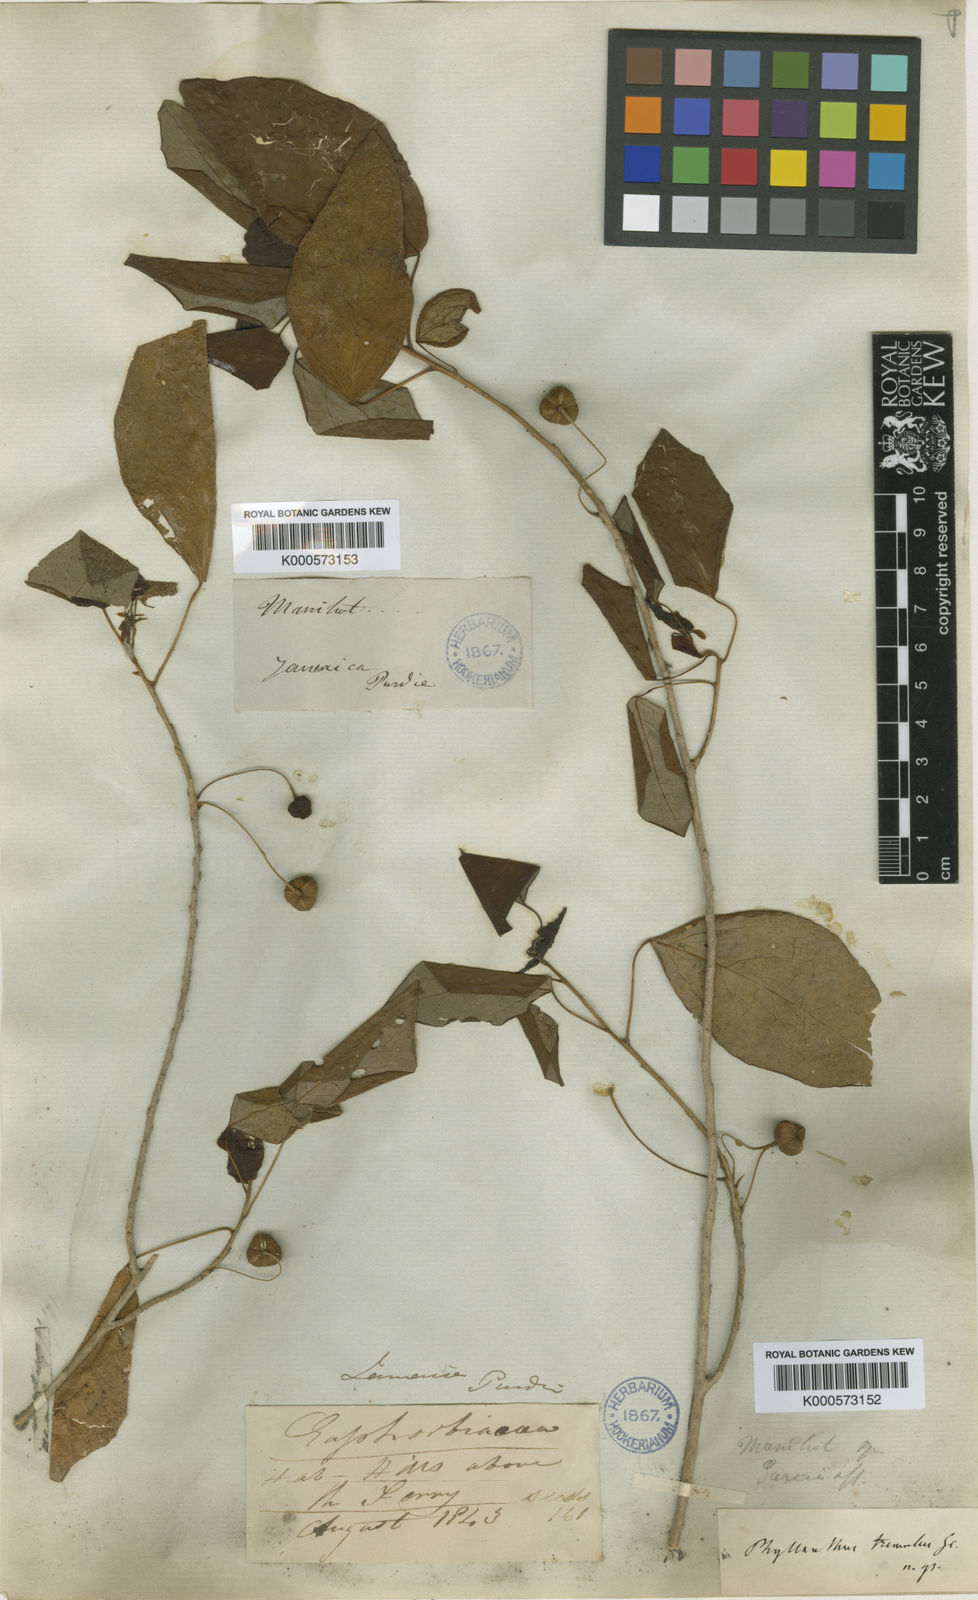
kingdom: Plantae
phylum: Tracheophyta
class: Magnoliopsida
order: Malpighiales
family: Phyllanthaceae
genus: Astrocasia
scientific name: Astrocasia tremula
